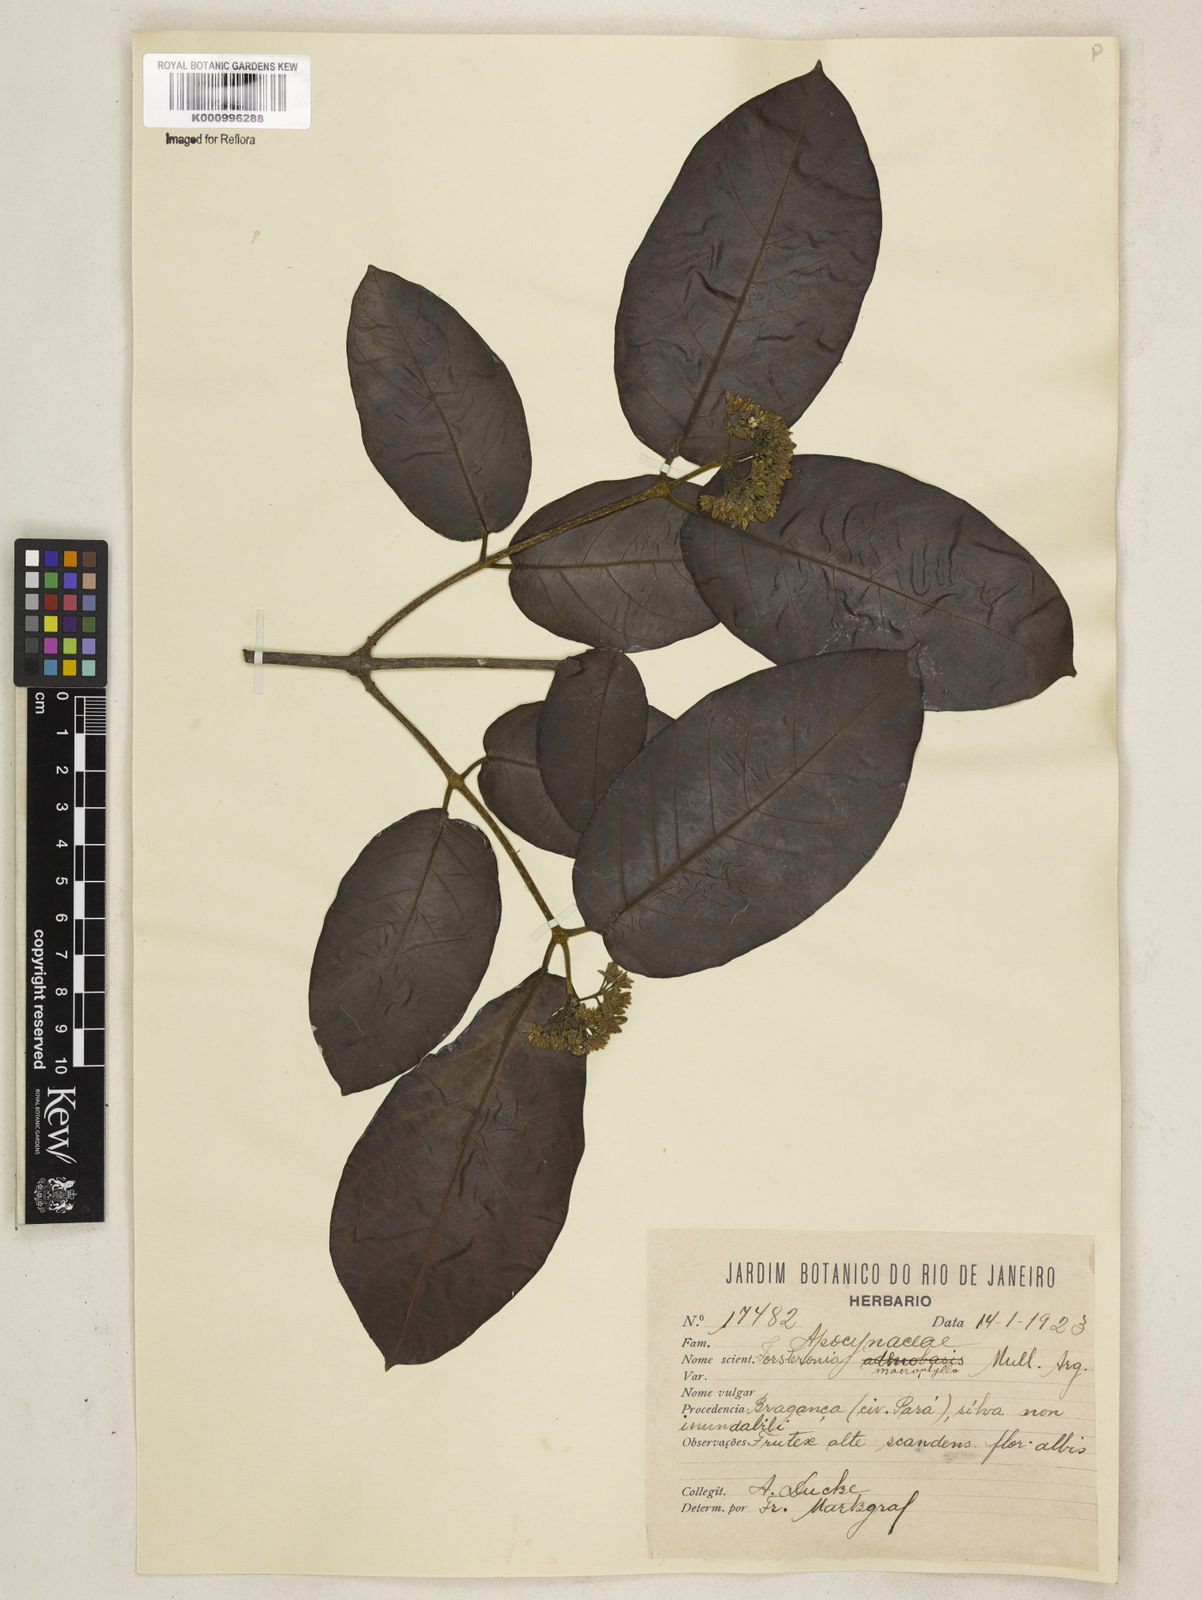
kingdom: Plantae
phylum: Tracheophyta
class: Magnoliopsida
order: Gentianales
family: Apocynaceae
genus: Forsteronia
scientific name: Forsteronia umbellata
